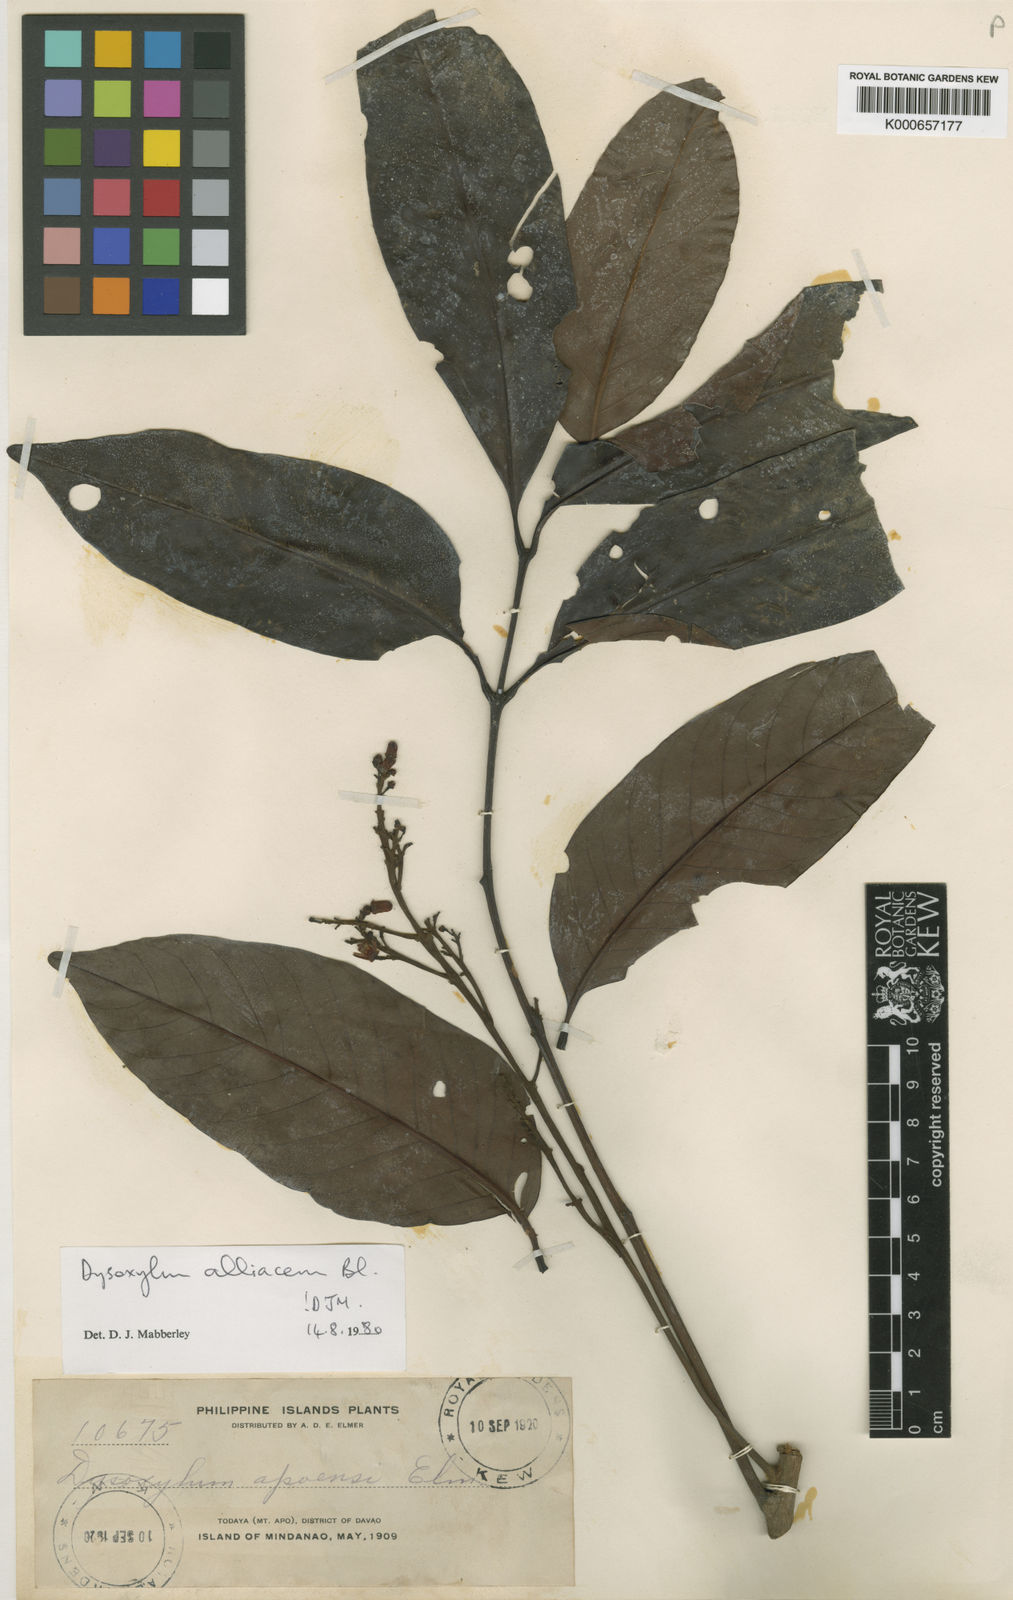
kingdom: Plantae
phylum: Tracheophyta
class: Magnoliopsida
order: Sapindales
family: Meliaceae
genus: Prasoxylon
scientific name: Prasoxylon alliaceum
